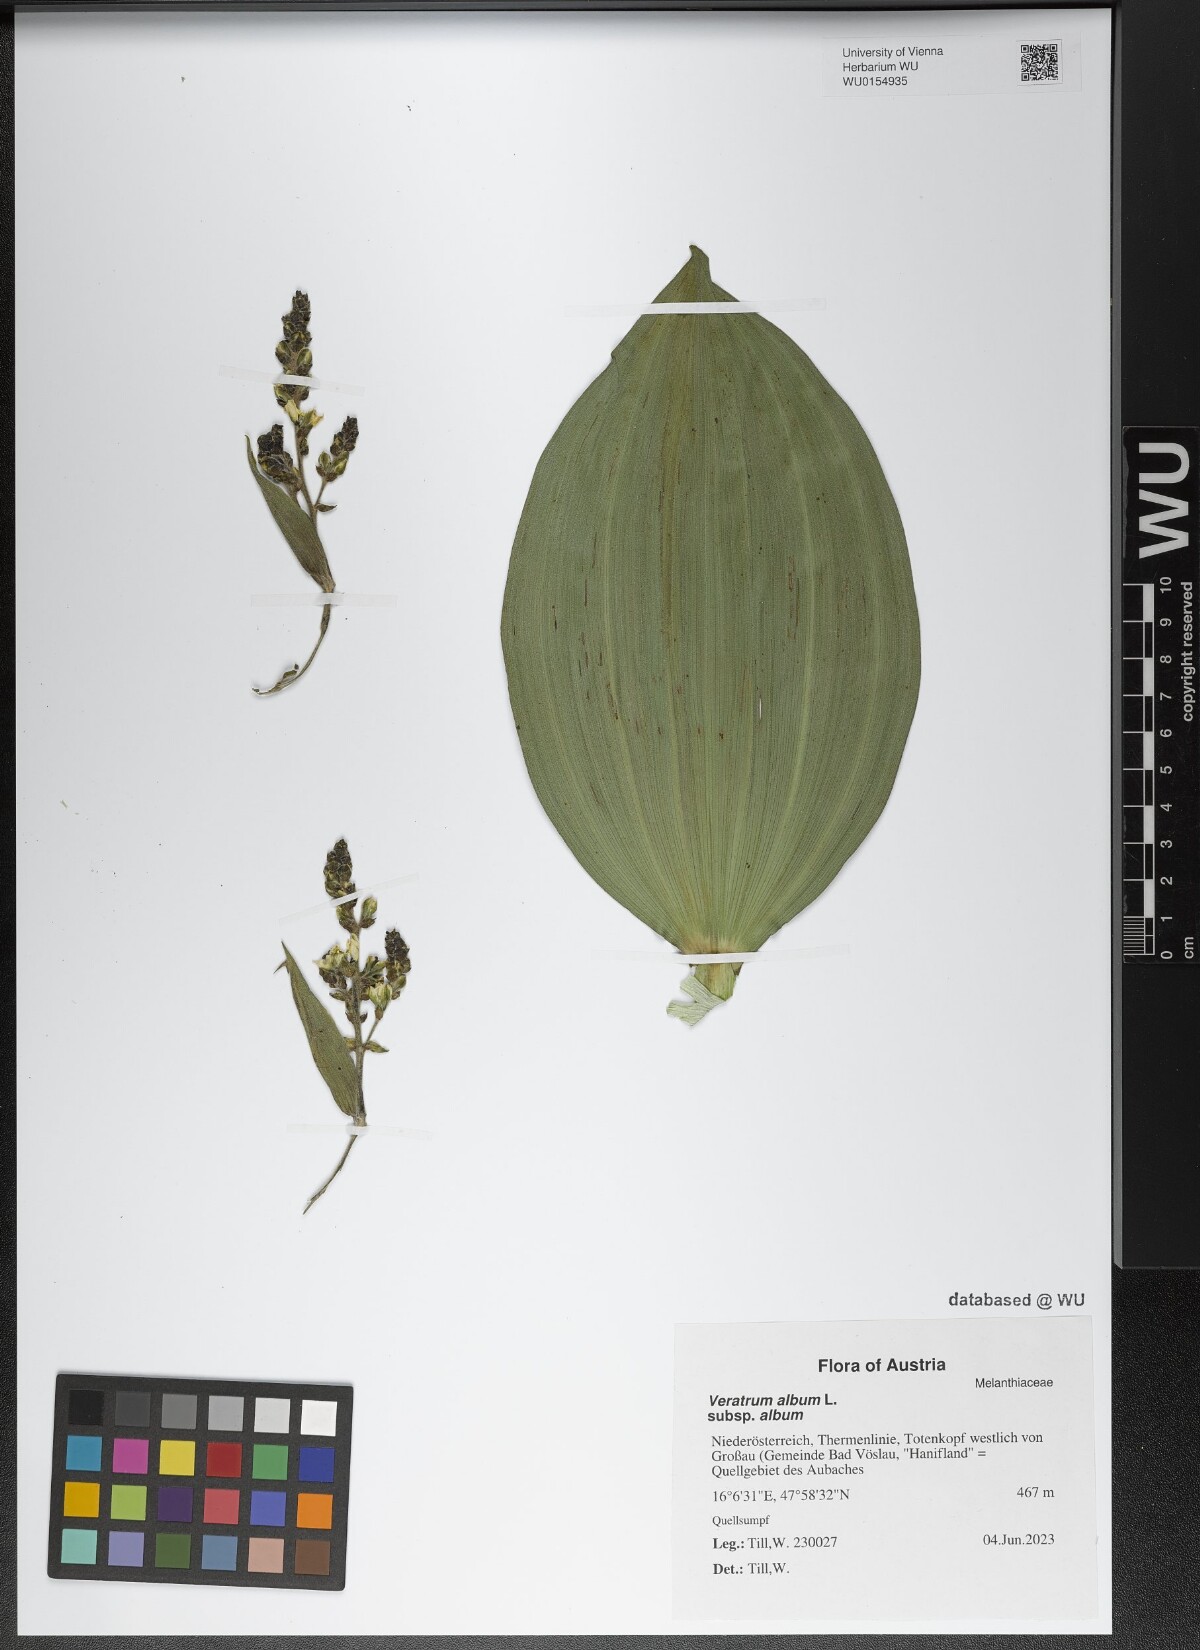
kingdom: Plantae
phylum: Tracheophyta
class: Liliopsida
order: Liliales
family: Melanthiaceae
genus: Veratrum
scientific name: Veratrum album
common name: White veratrum
